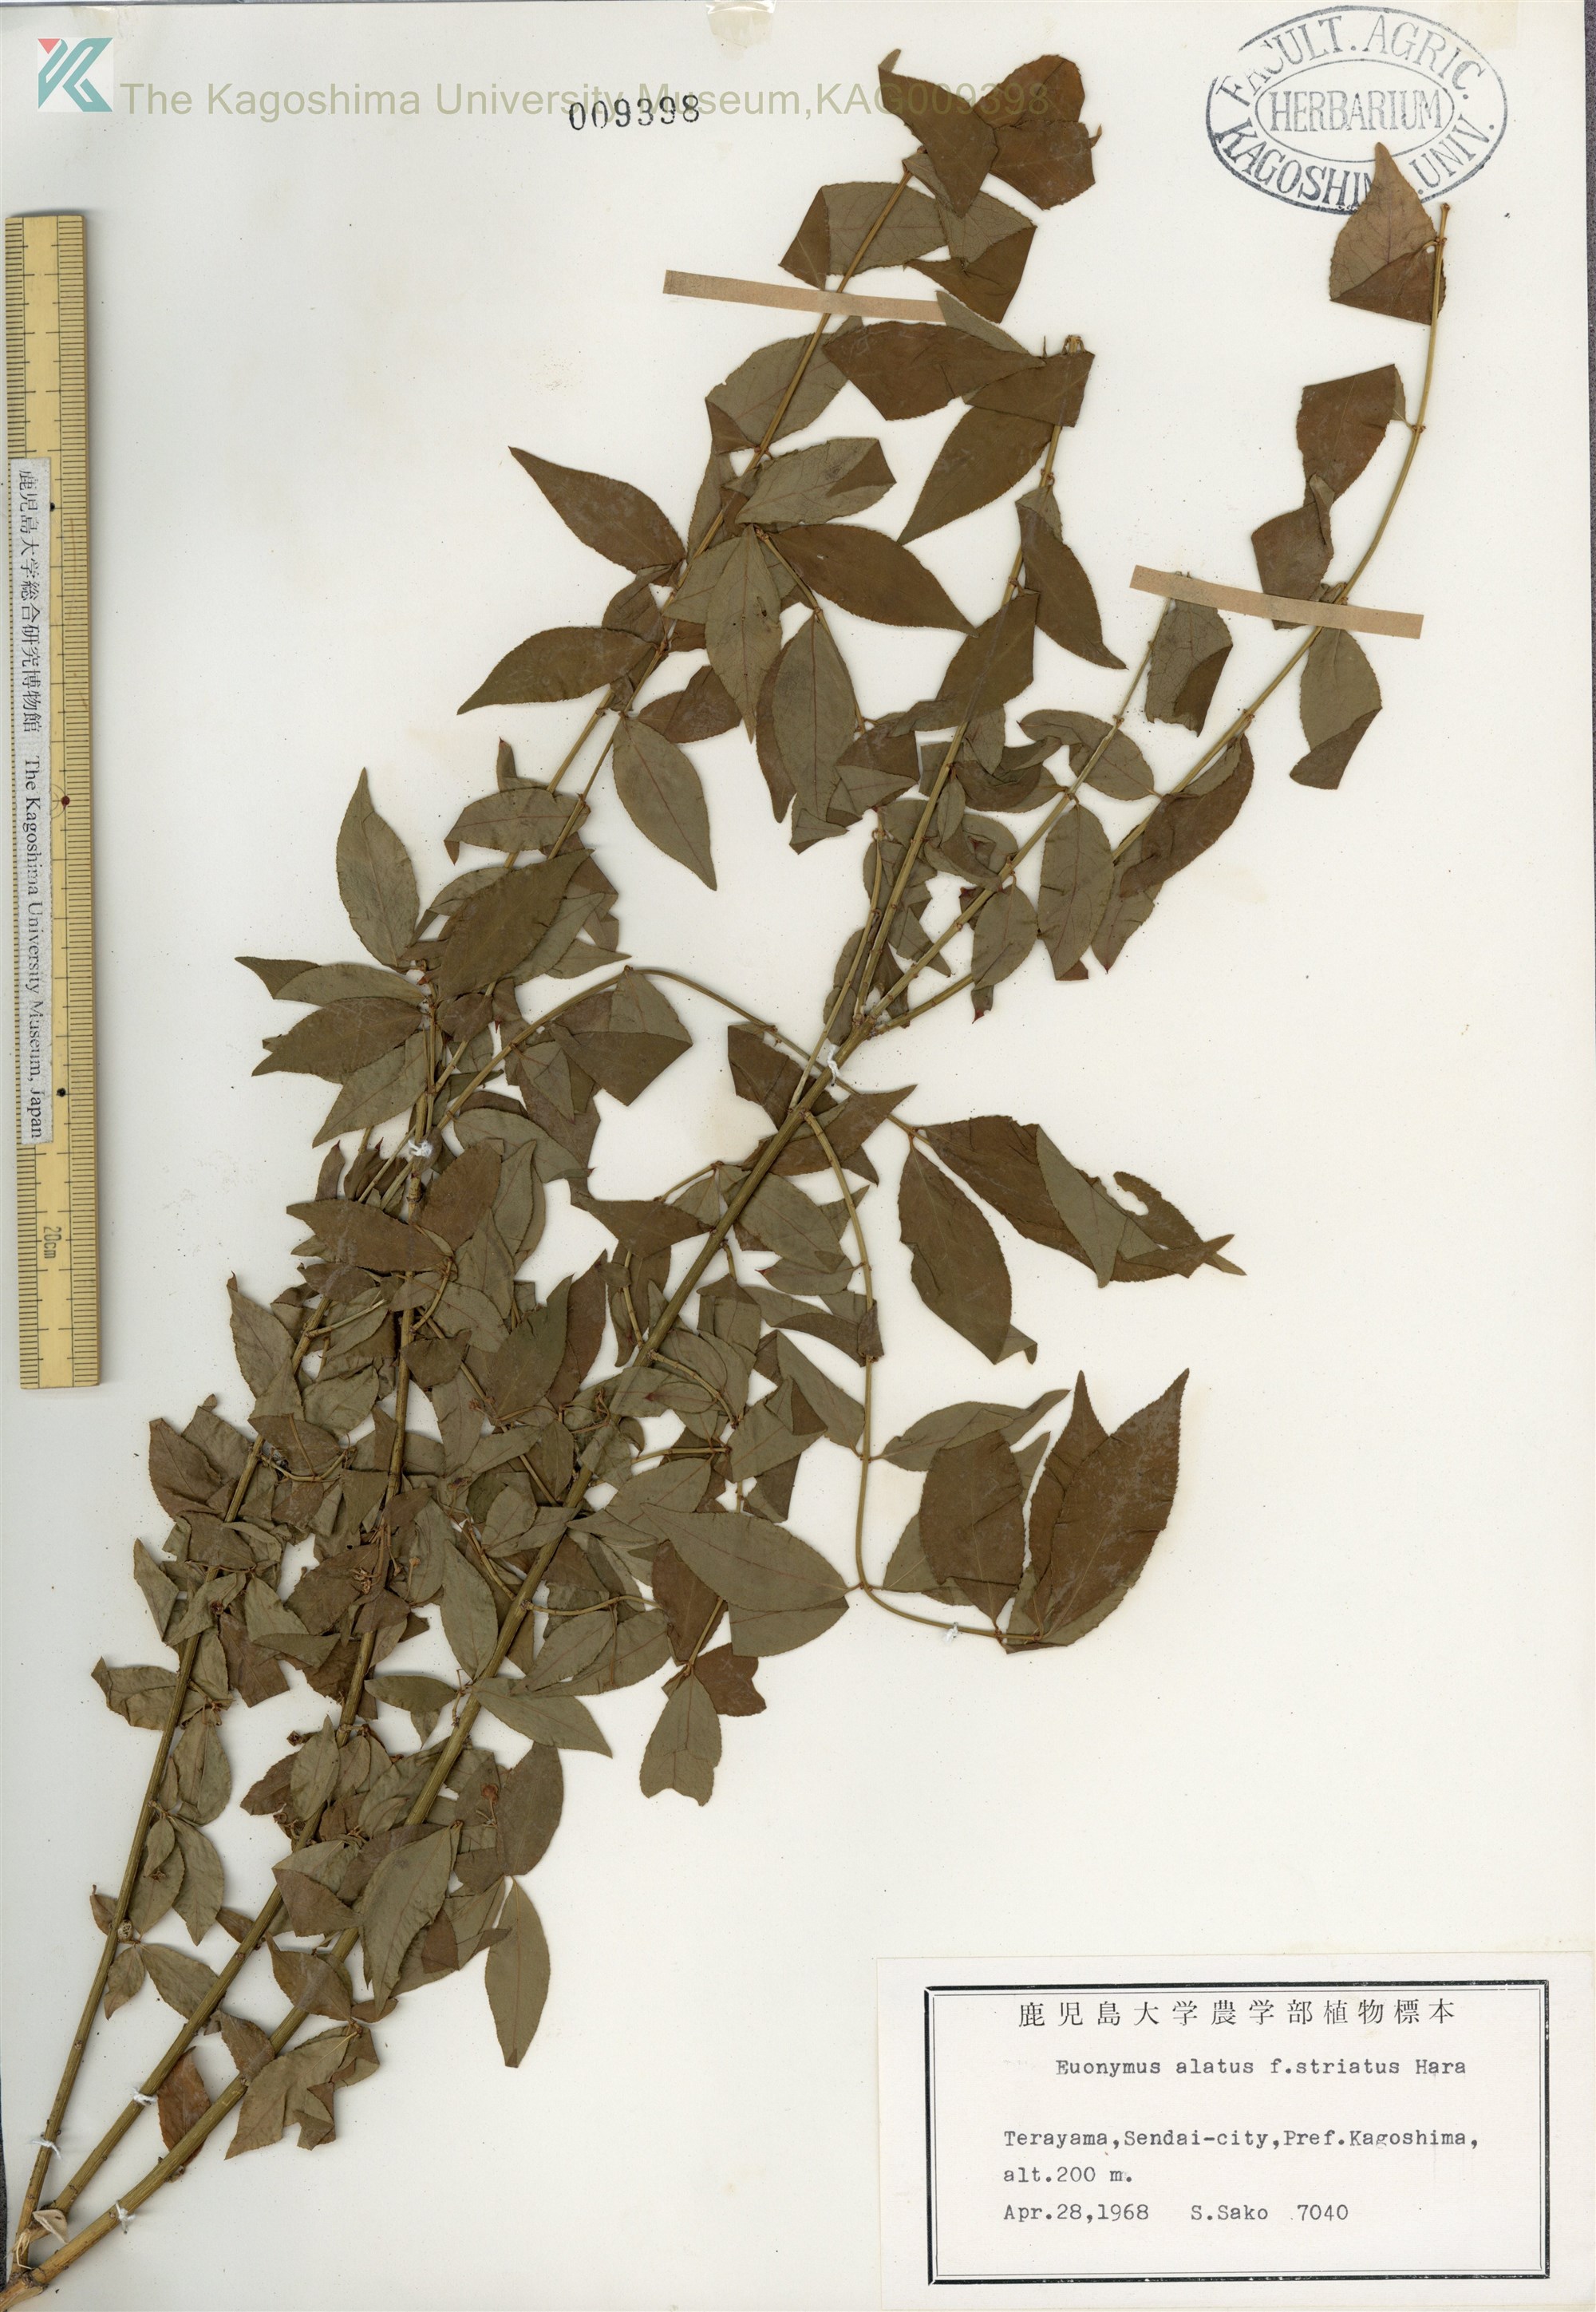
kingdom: Plantae
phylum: Tracheophyta
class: Magnoliopsida
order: Celastrales
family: Celastraceae
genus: Euonymus
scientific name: Euonymus alatus
